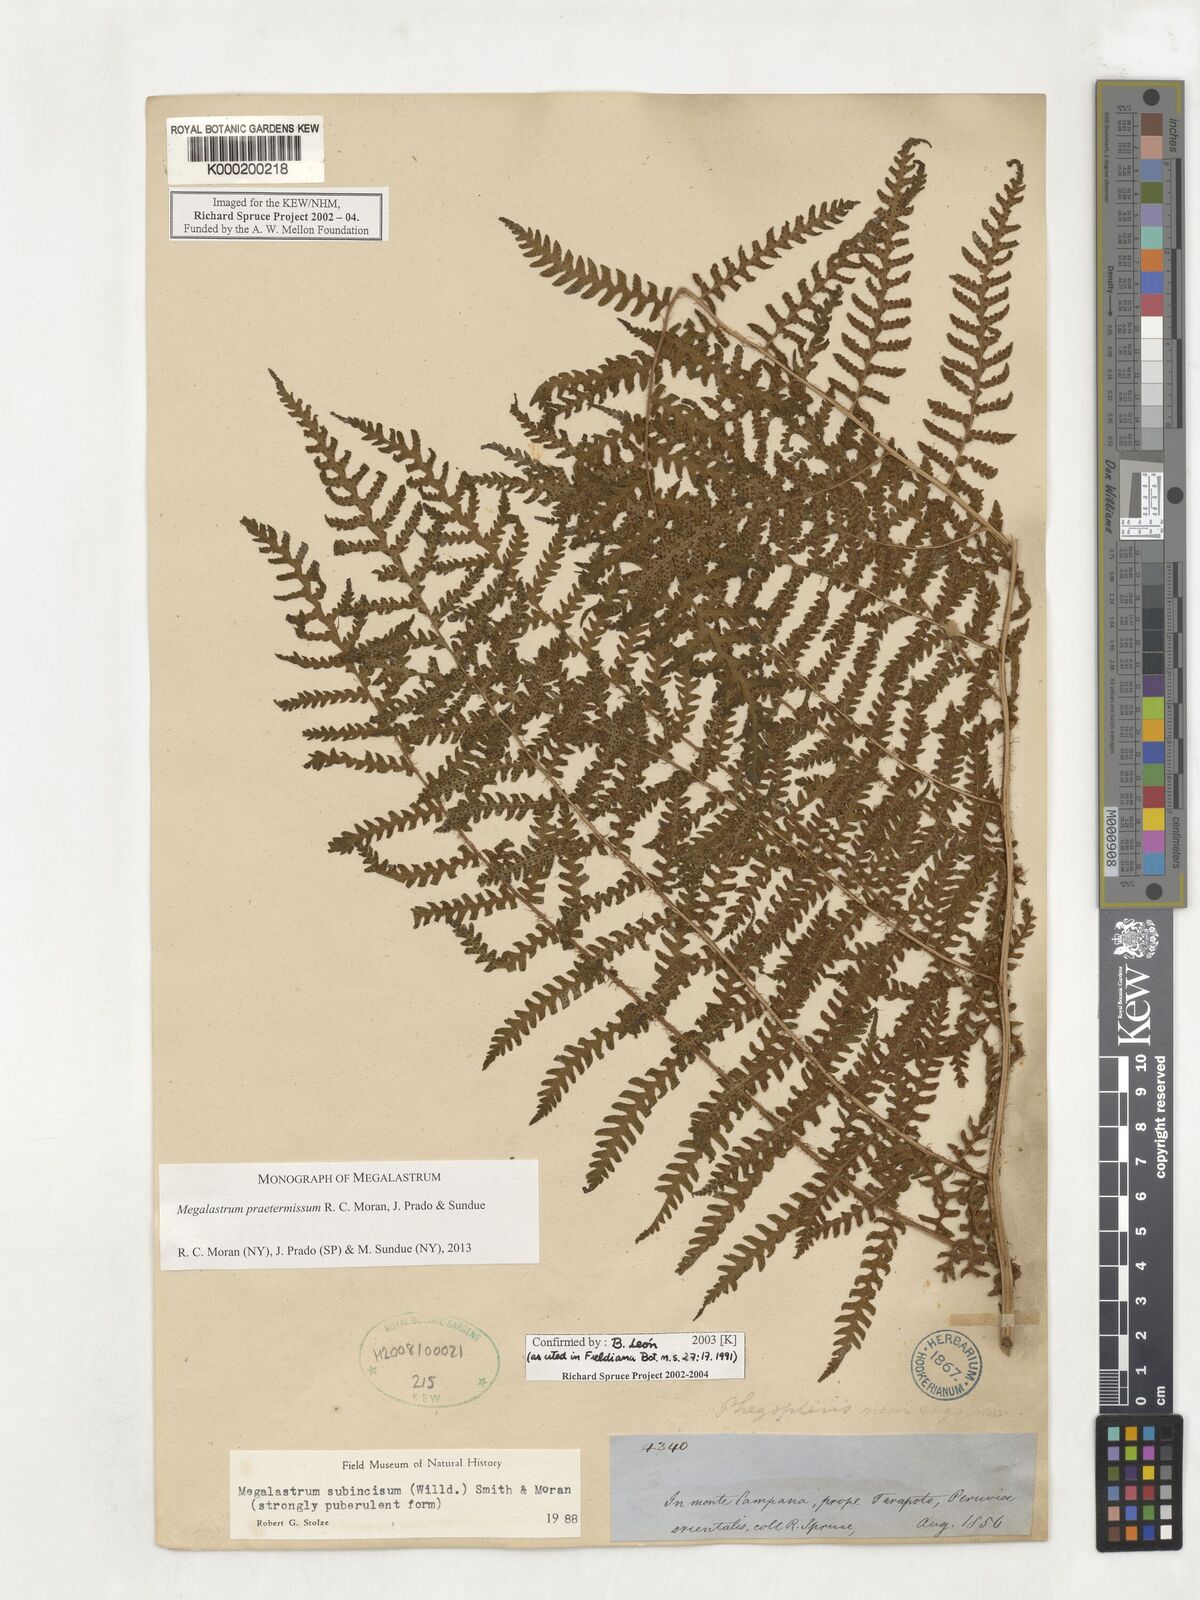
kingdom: Plantae
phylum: Tracheophyta
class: Polypodiopsida
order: Polypodiales
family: Dryopteridaceae
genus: Megalastrum
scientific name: Megalastrum praetermissum
